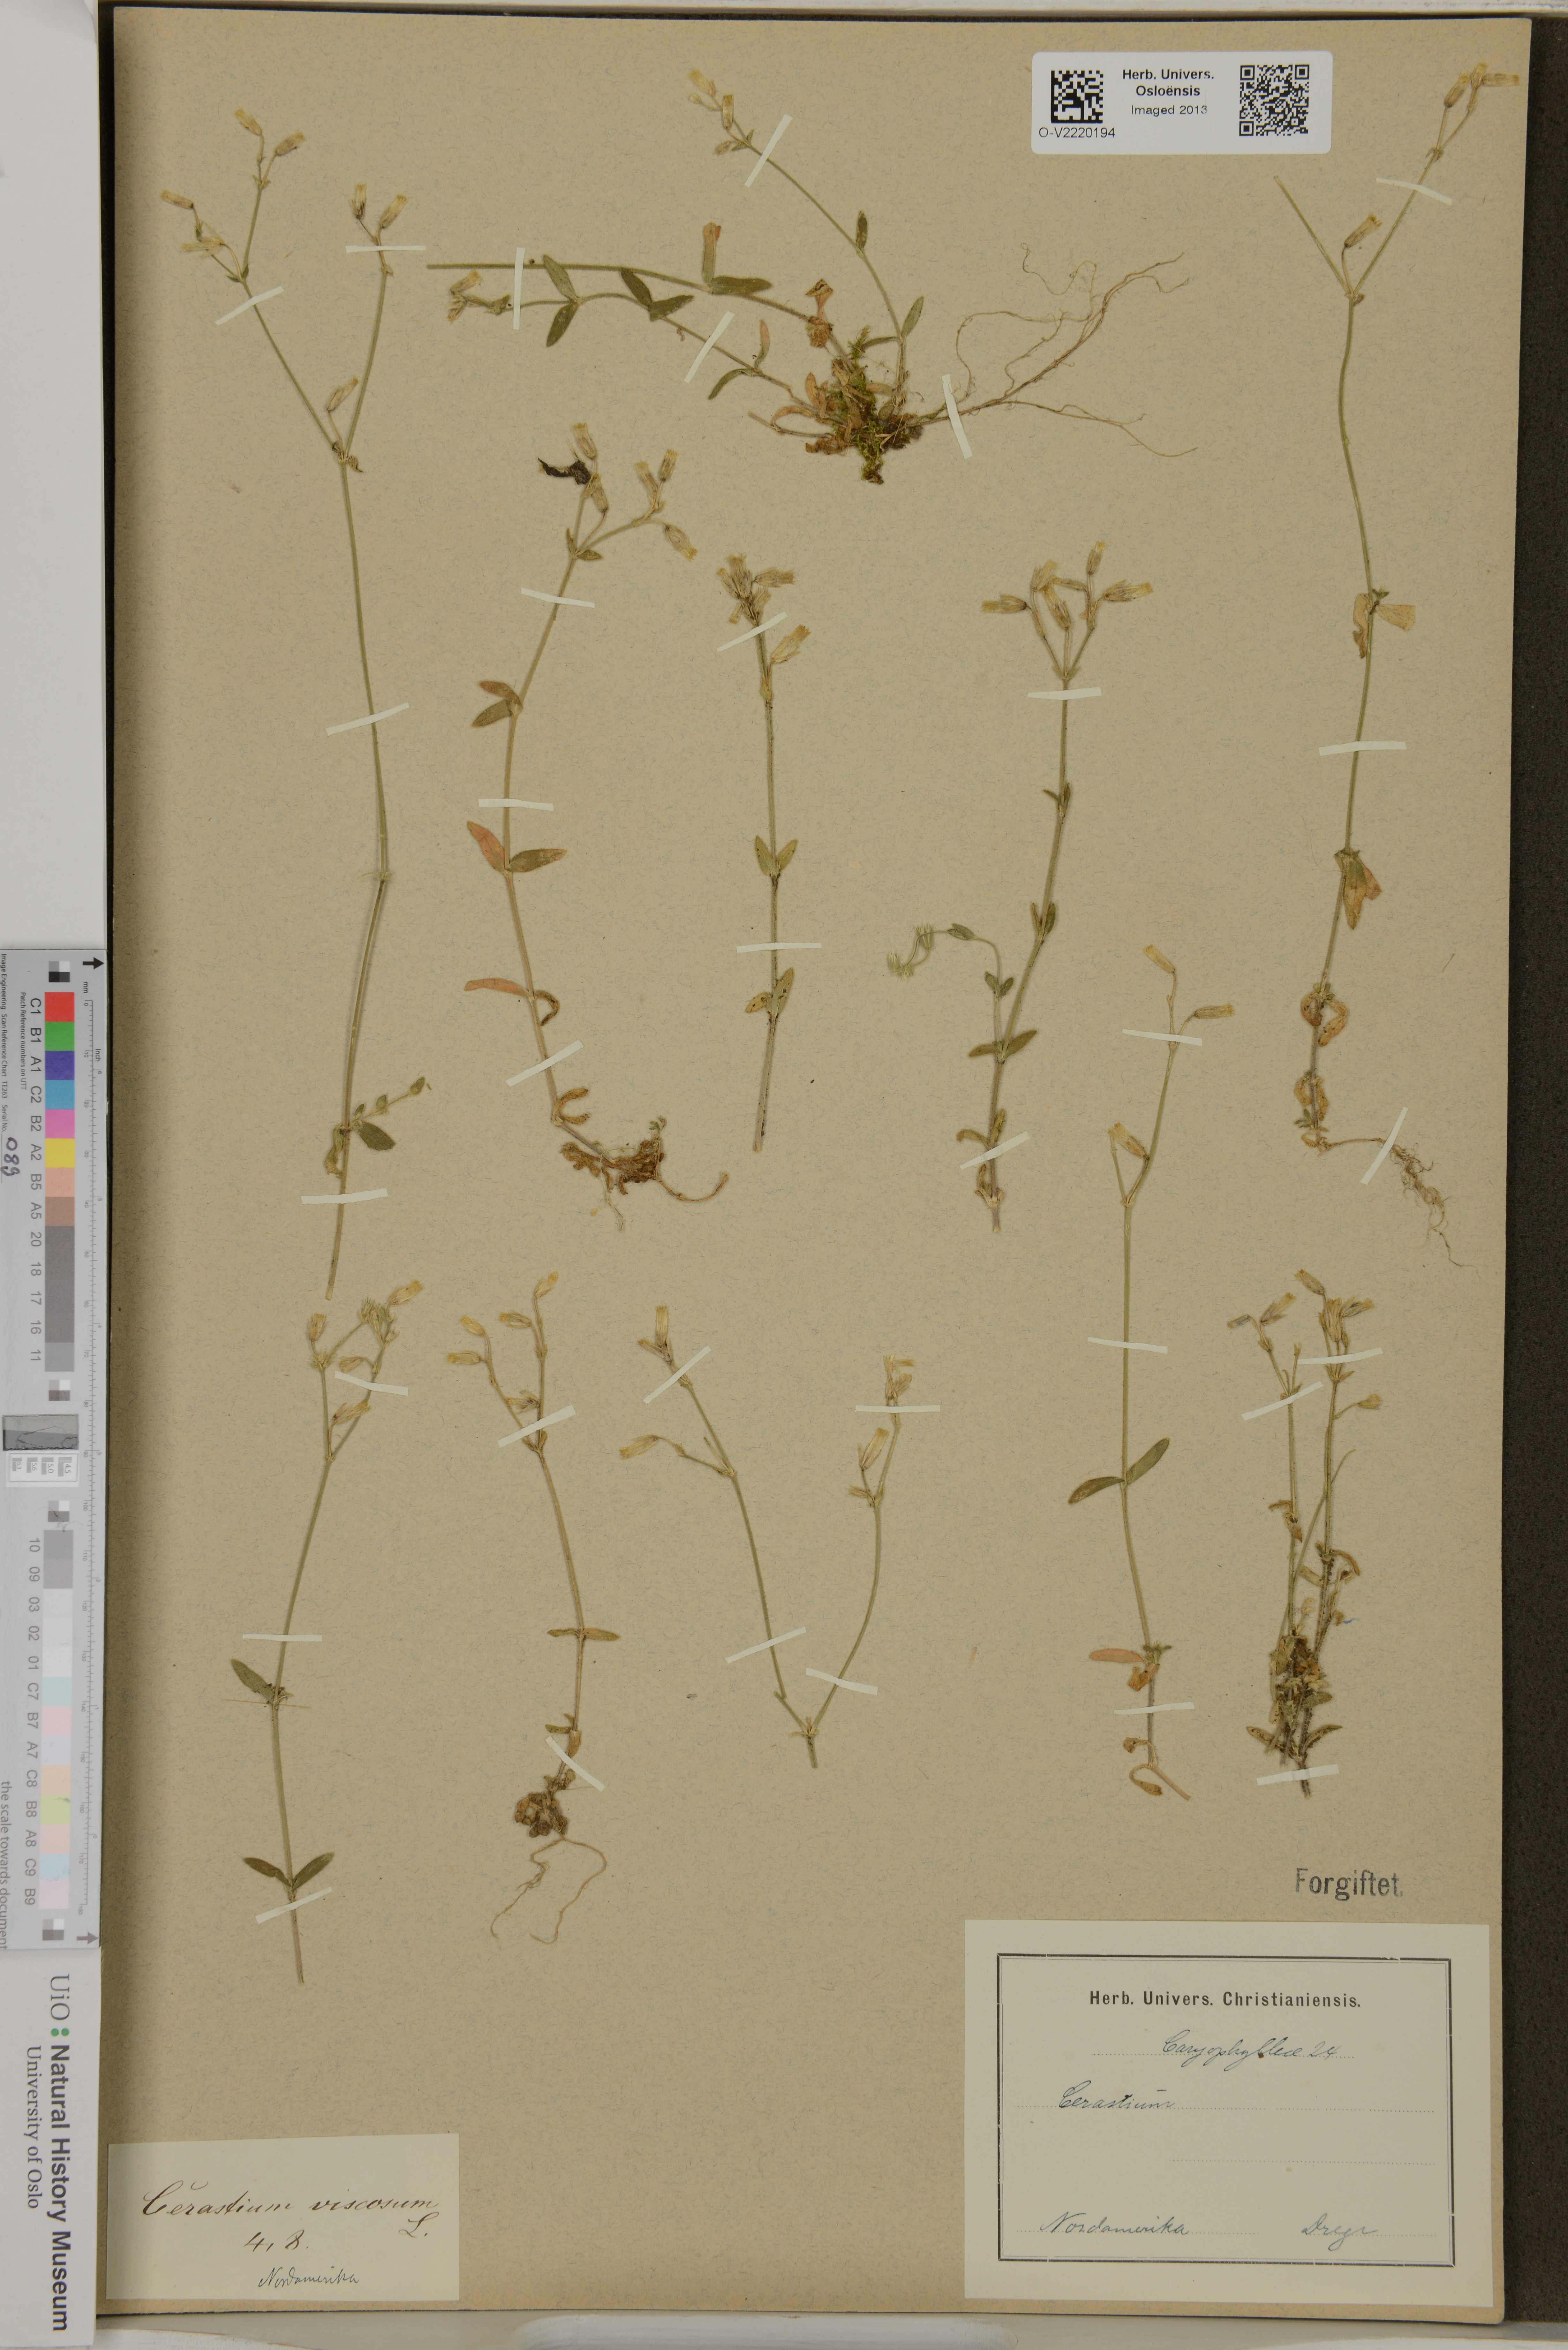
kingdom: Plantae
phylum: Tracheophyta
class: Magnoliopsida
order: Caryophyllales
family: Caryophyllaceae
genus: Cerastium
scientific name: Cerastium
